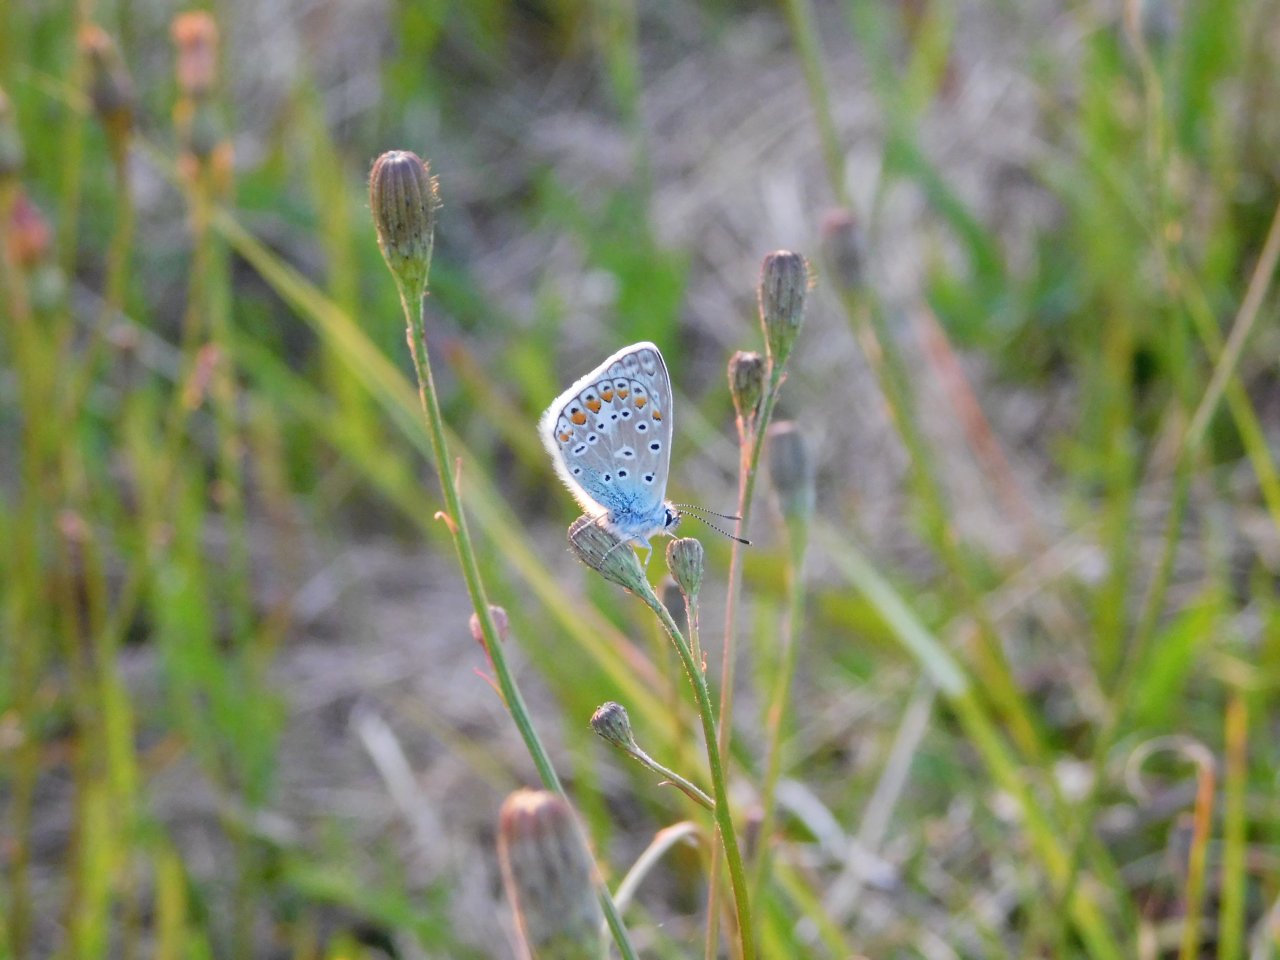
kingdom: Animalia
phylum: Arthropoda
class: Insecta
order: Lepidoptera
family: Lycaenidae
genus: Polyommatus
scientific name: Polyommatus icarus
